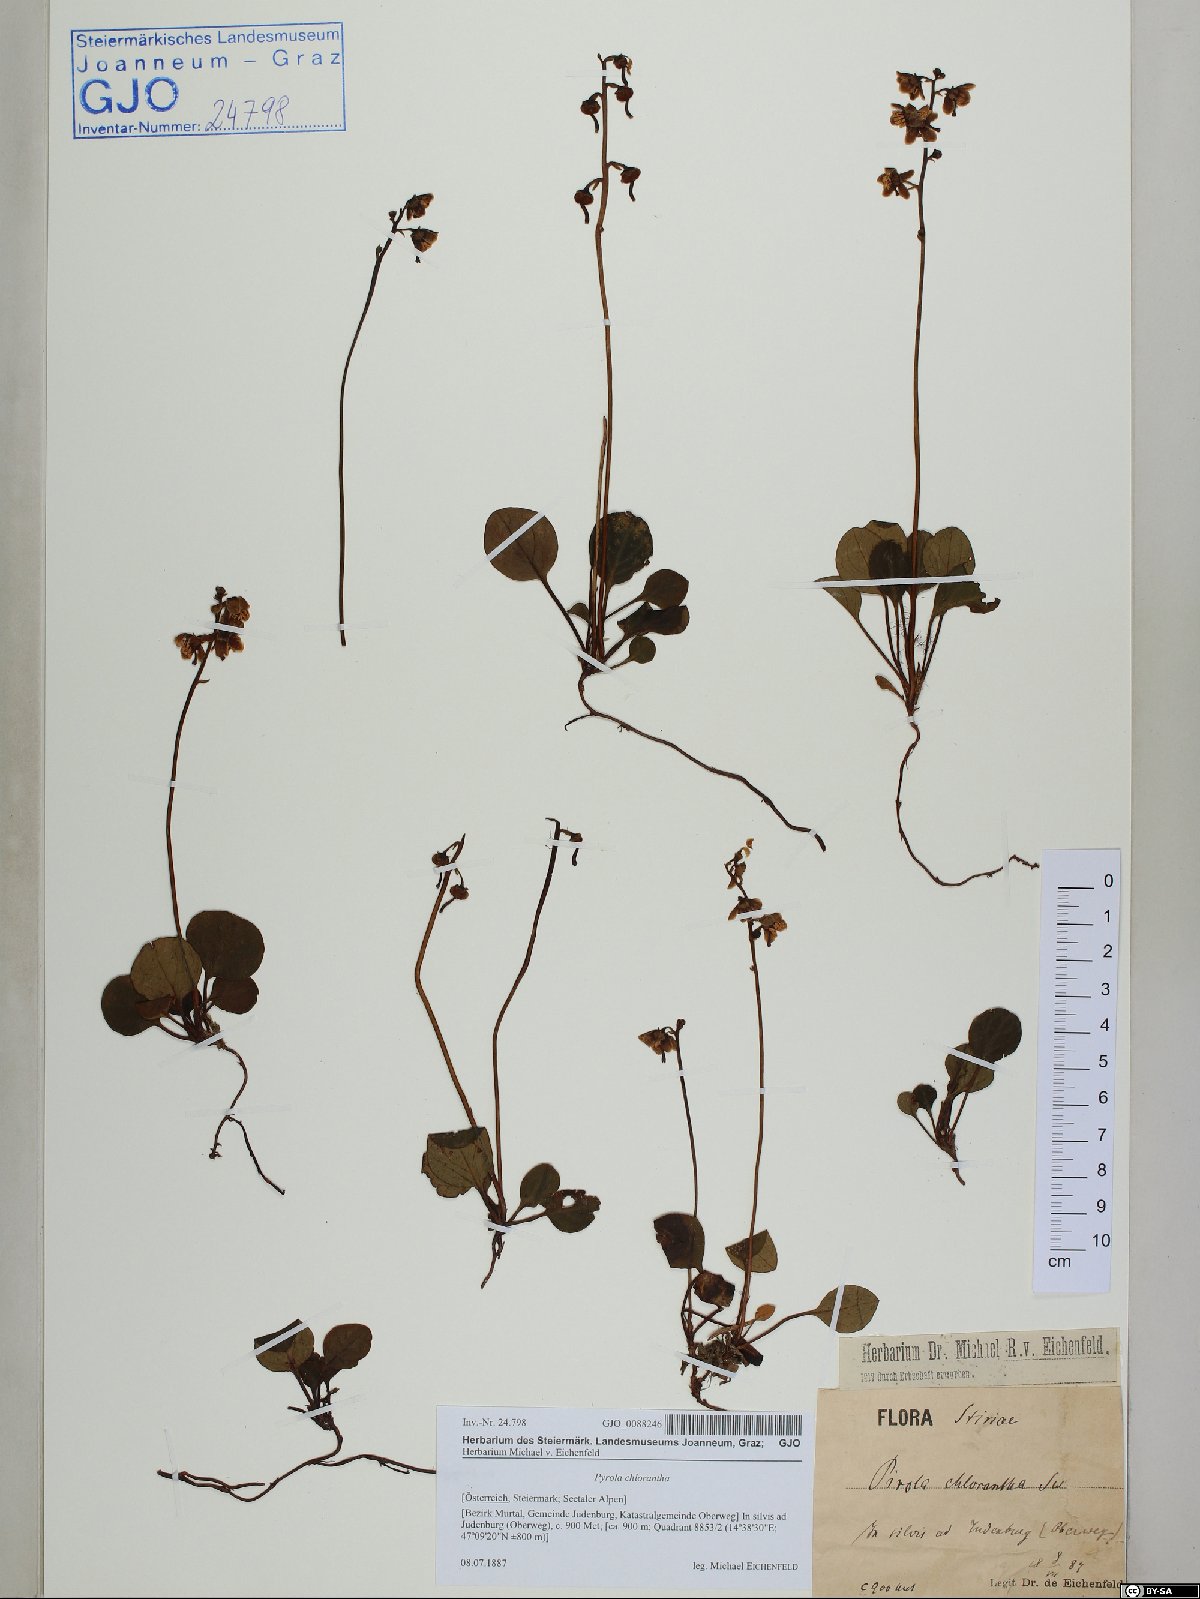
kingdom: Plantae
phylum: Tracheophyta
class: Magnoliopsida
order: Ericales
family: Ericaceae
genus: Pyrola
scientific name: Pyrola chlorantha
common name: Green wintergreen
